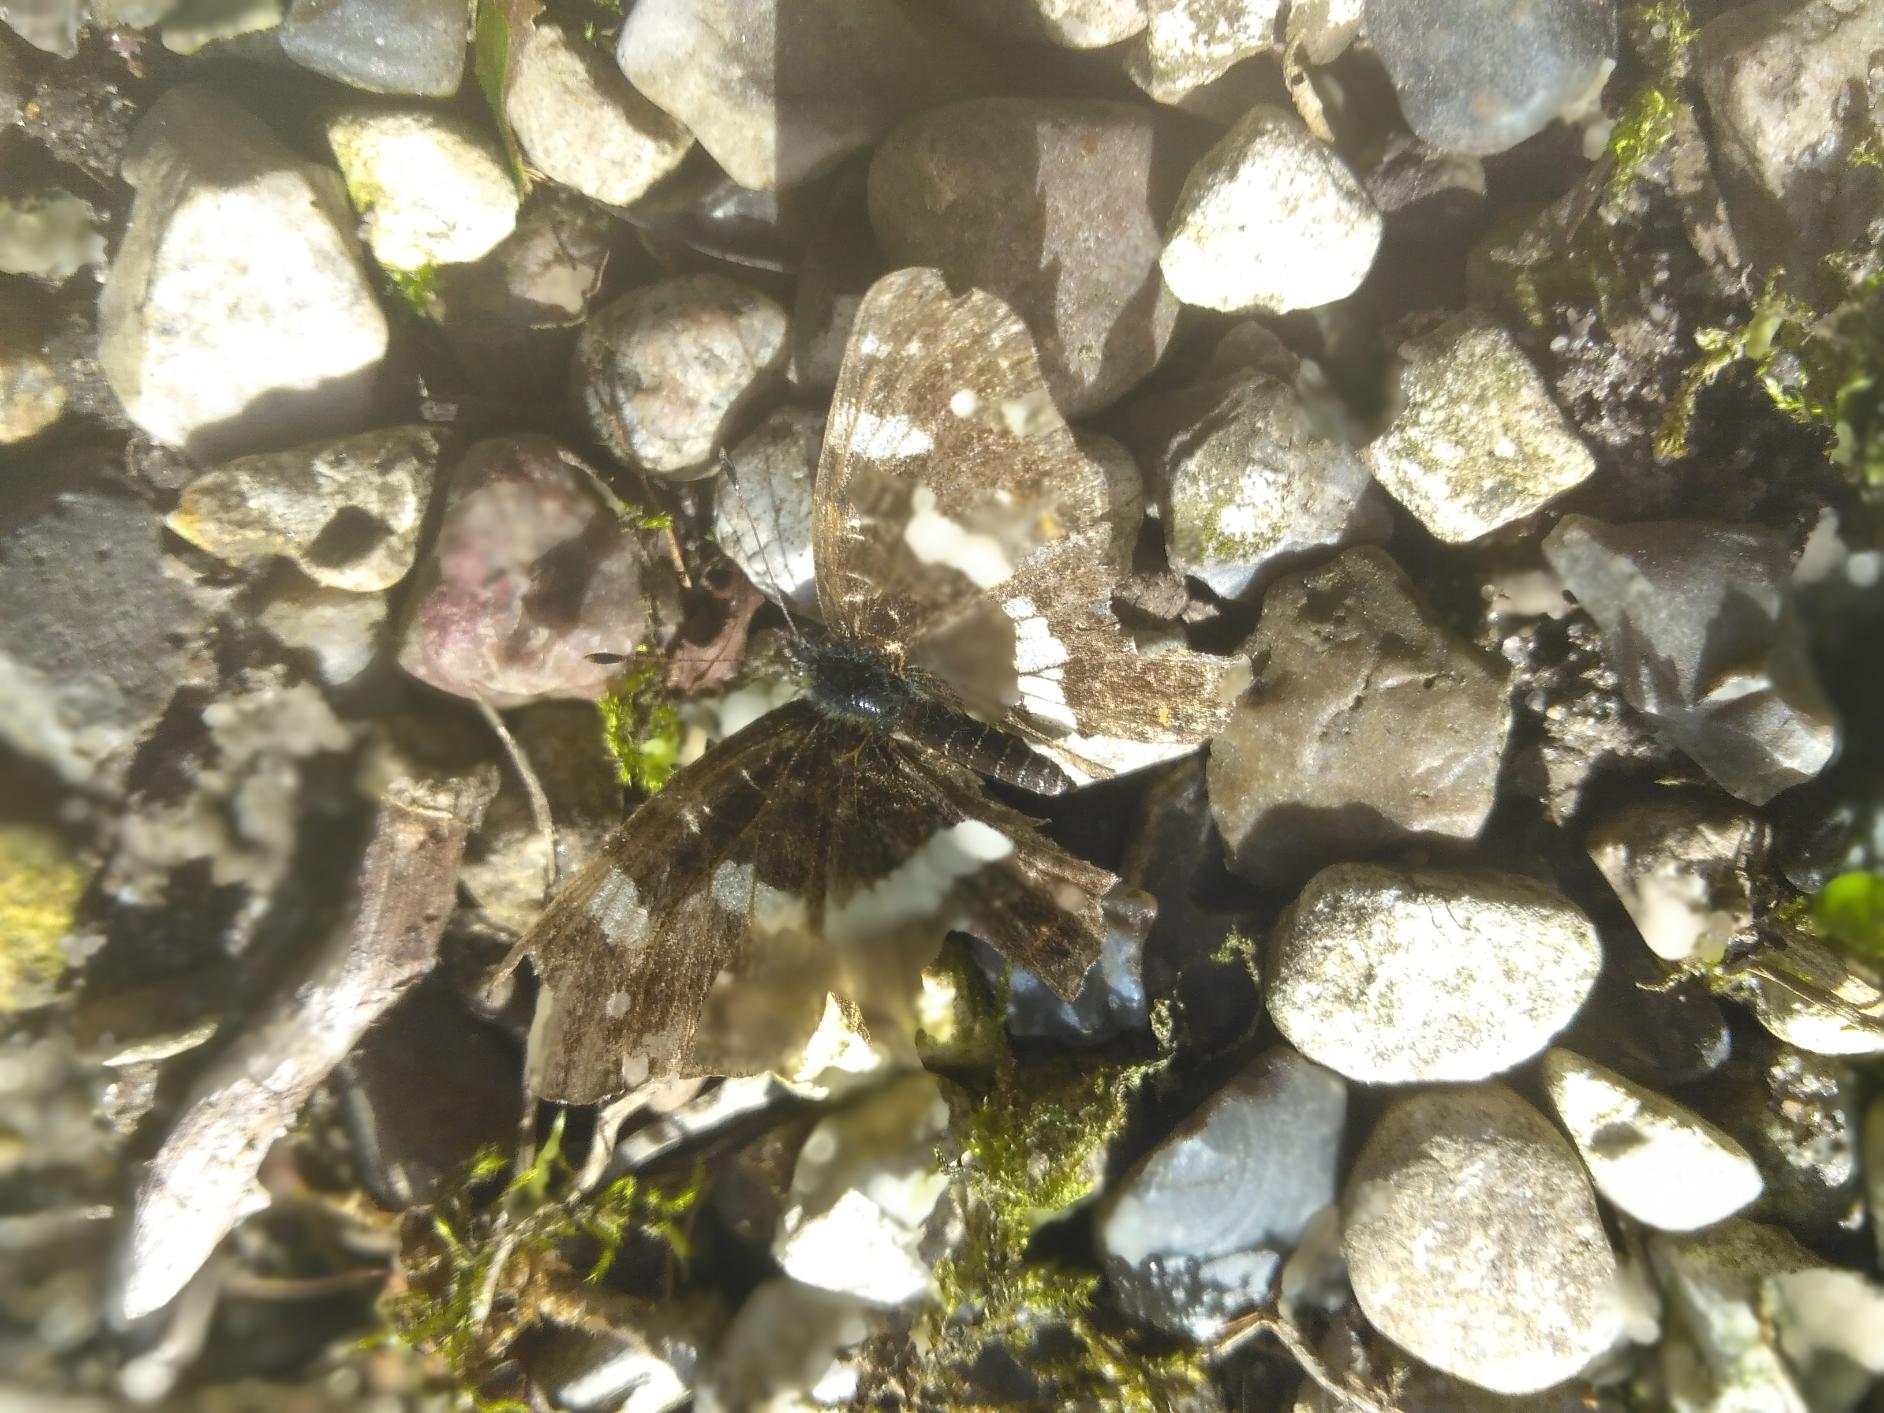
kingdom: Animalia
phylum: Arthropoda
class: Insecta
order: Lepidoptera
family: Nymphalidae
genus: Araschnia
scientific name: Araschnia levana
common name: Nældesommerfugl
